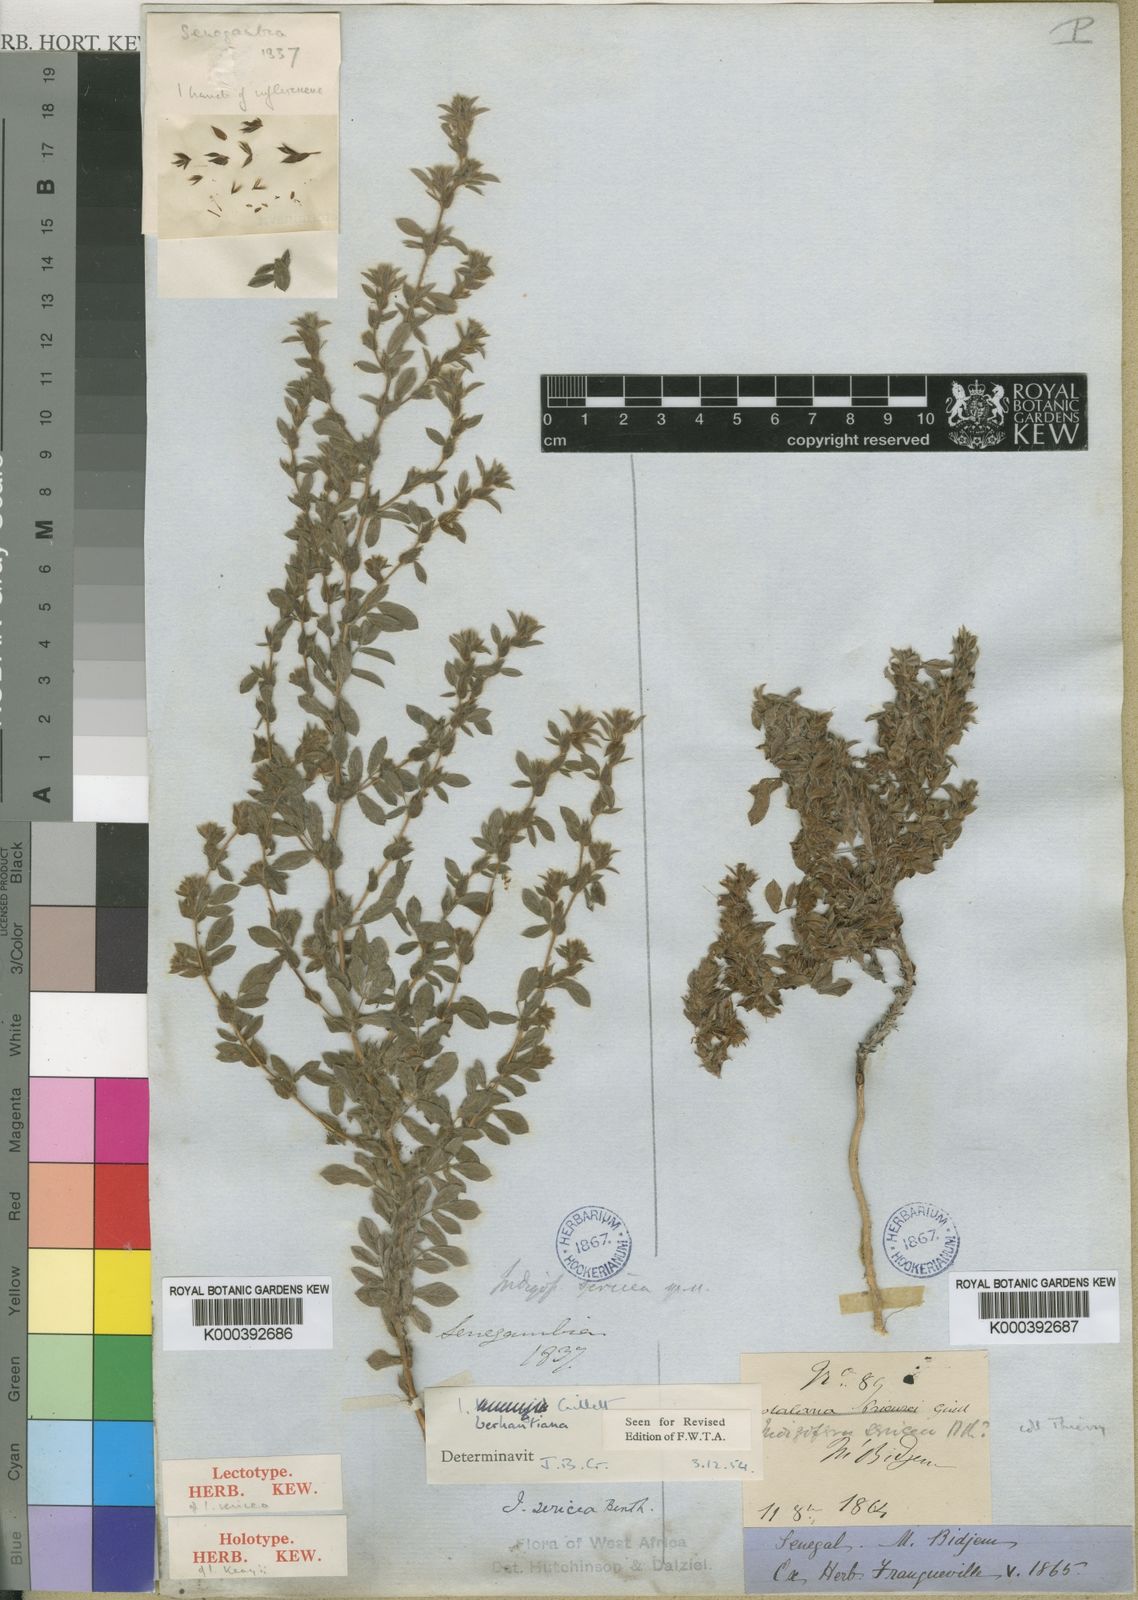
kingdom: Plantae
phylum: Tracheophyta
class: Magnoliopsida
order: Fabales
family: Fabaceae
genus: Indigofera
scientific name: Indigofera berhautiana
